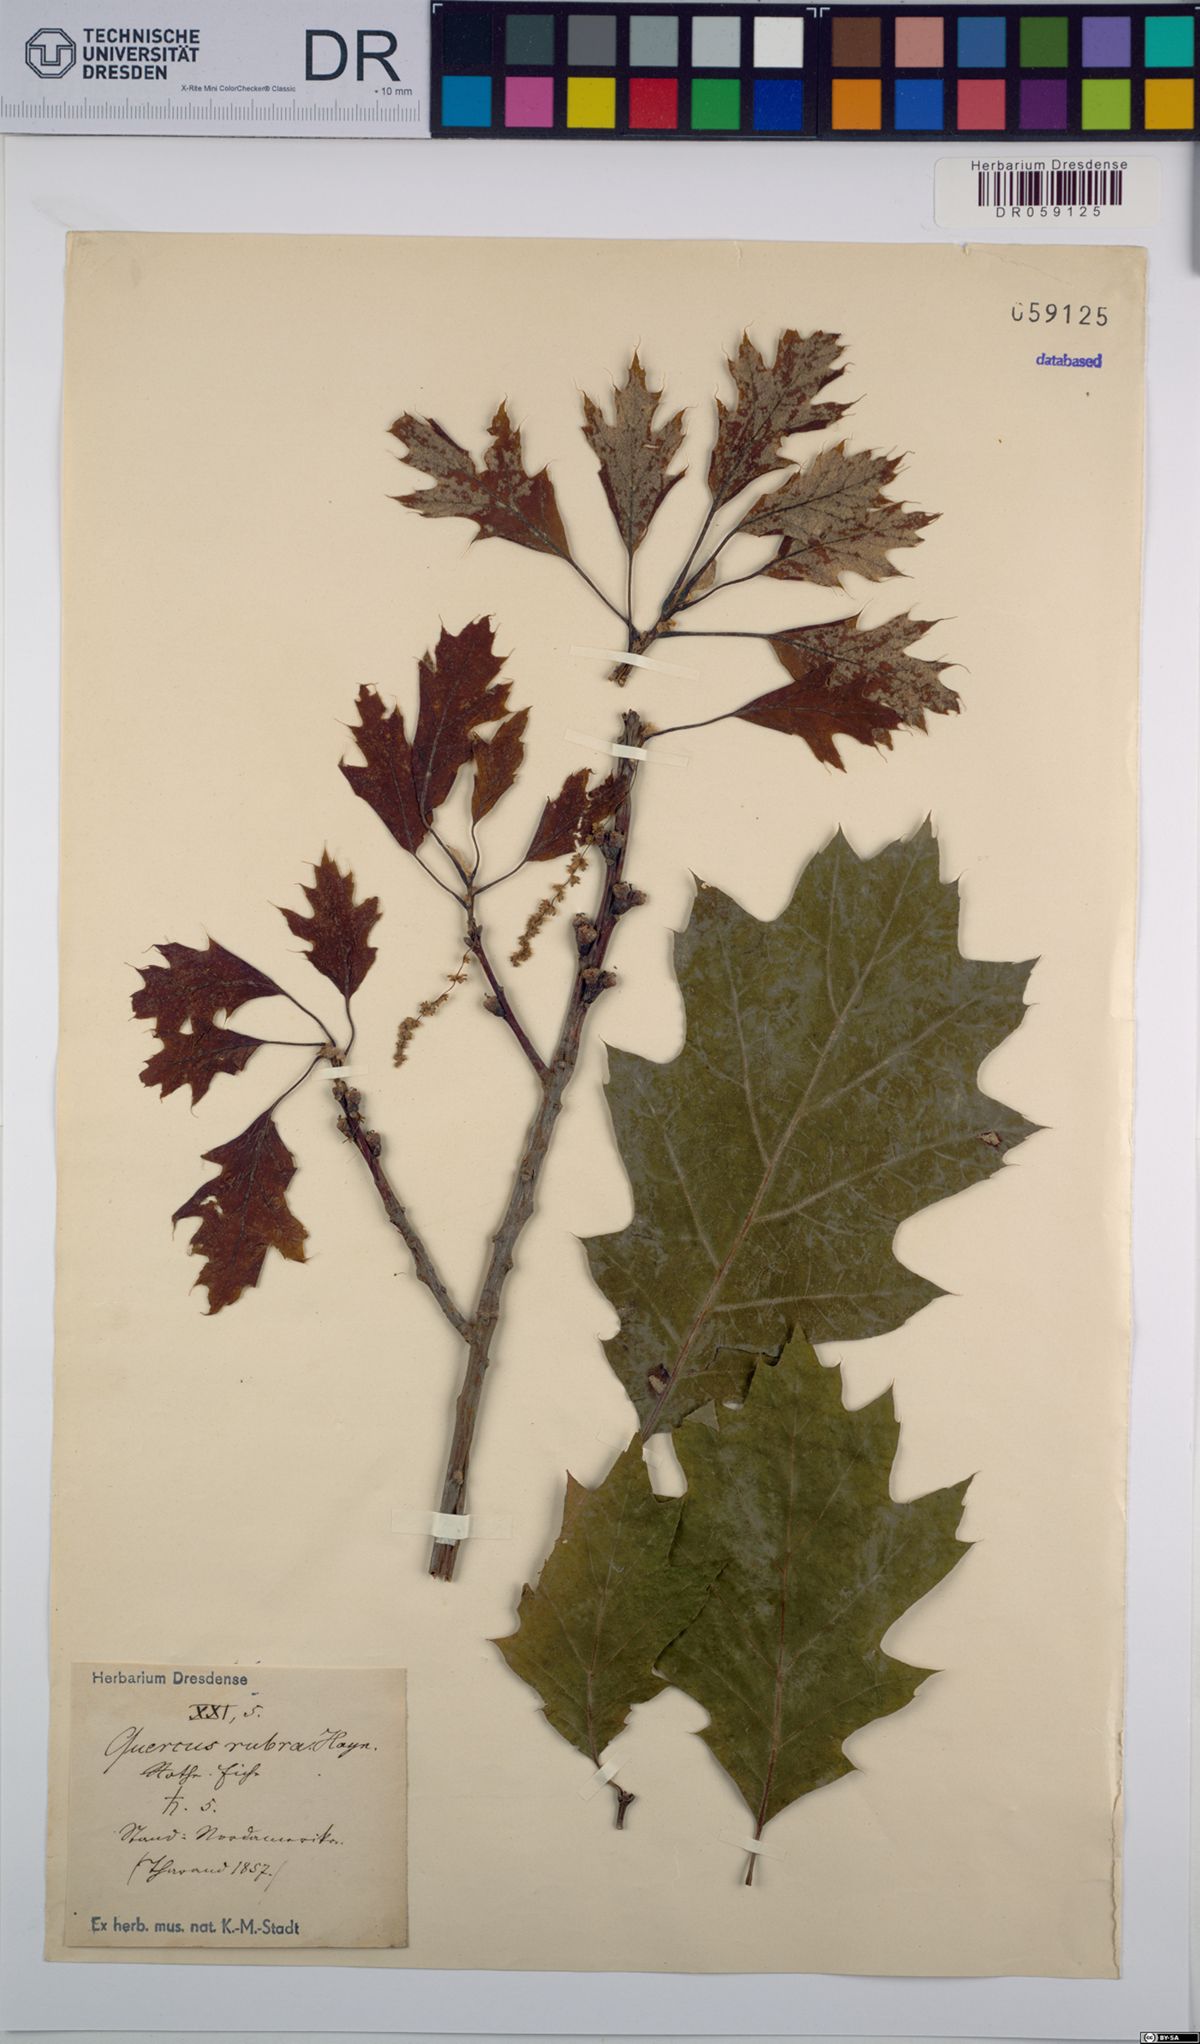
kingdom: Plantae
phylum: Tracheophyta
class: Magnoliopsida
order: Fagales
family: Fagaceae
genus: Quercus
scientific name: Quercus rubra
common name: Red oak
